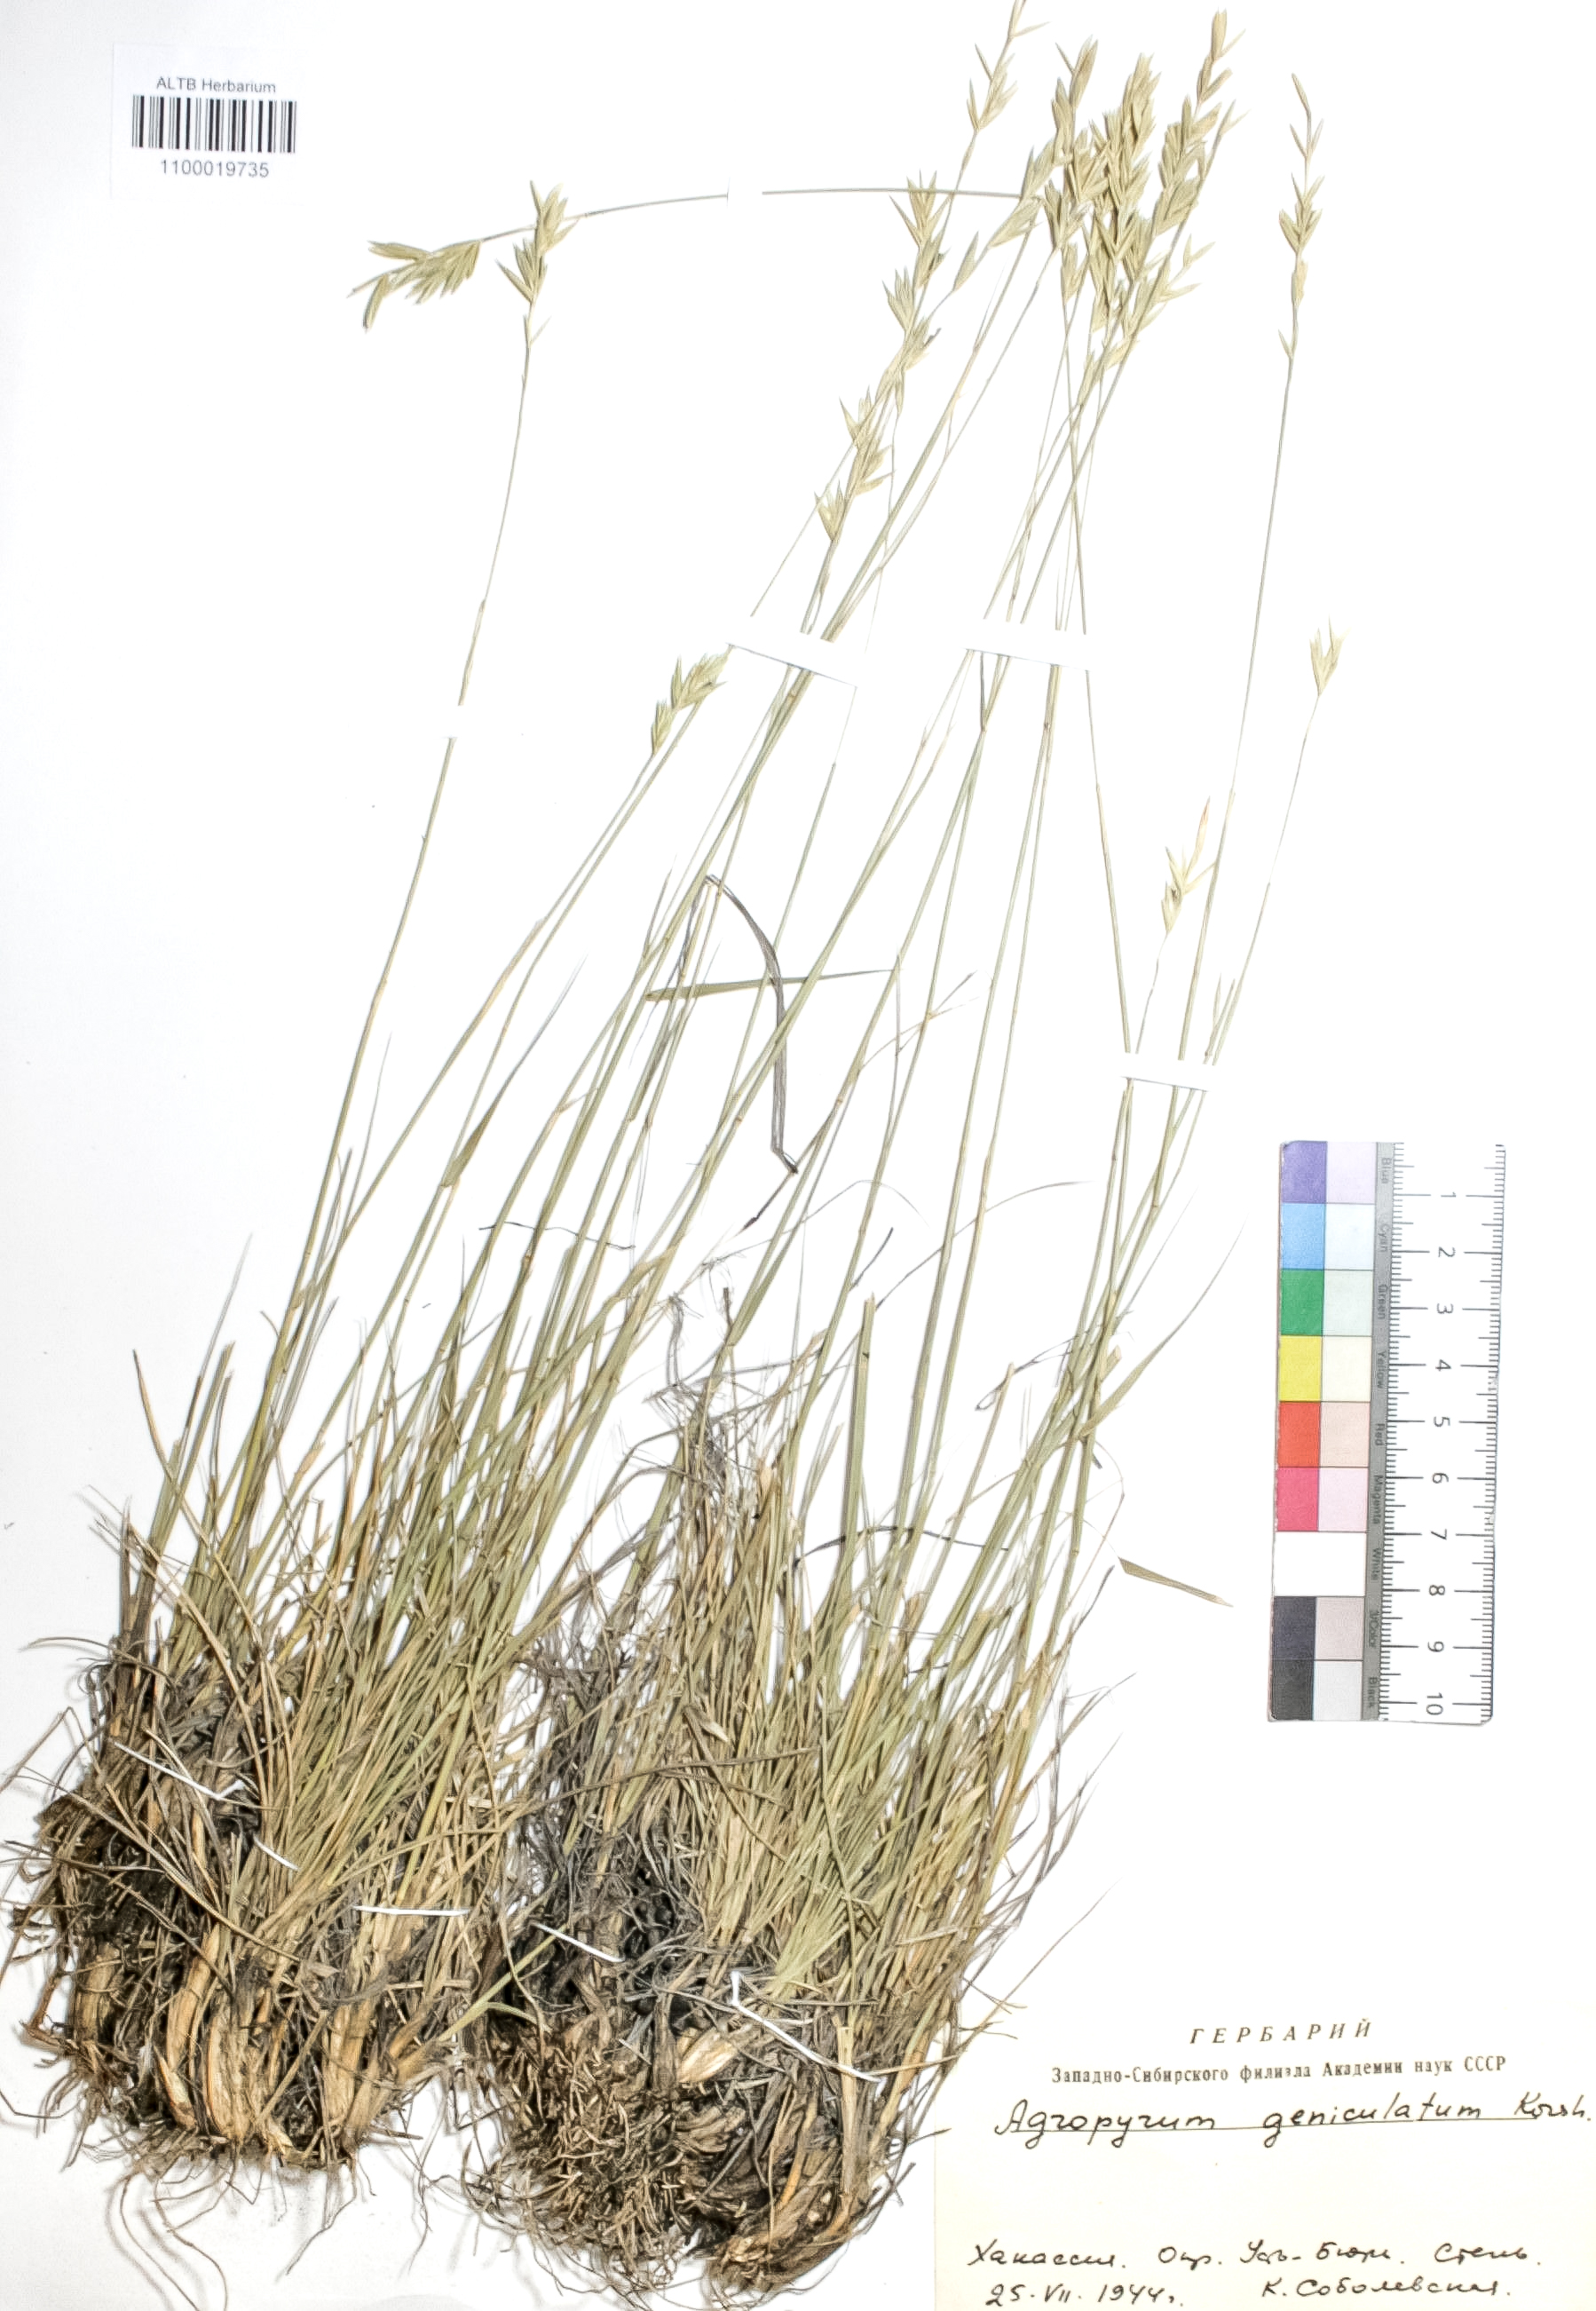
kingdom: Plantae
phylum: Tracheophyta
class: Liliopsida
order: Poales
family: Poaceae
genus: Pseudoroegneria
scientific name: Pseudoroegneria geniculata
